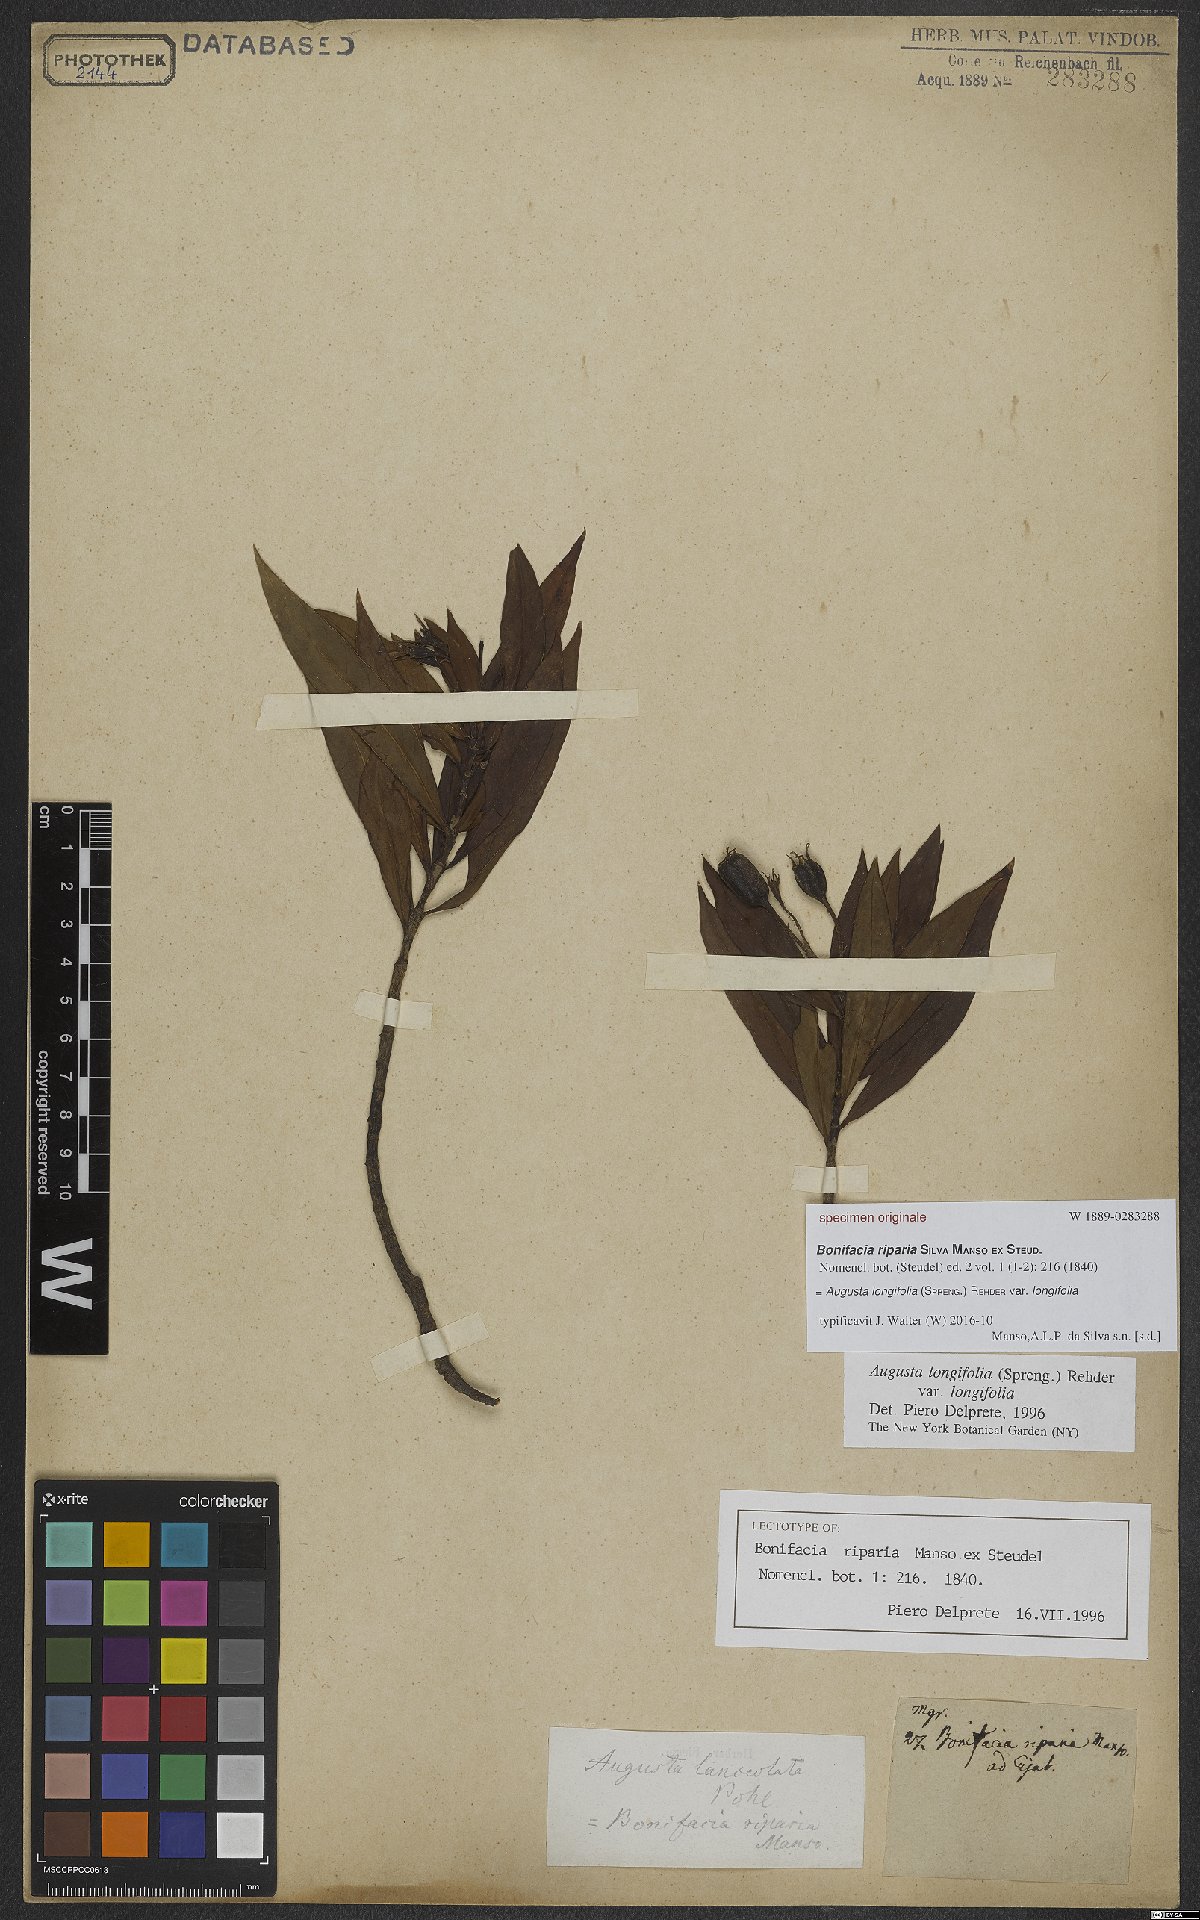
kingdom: Plantae
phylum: Tracheophyta
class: Magnoliopsida
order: Gentianales
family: Rubiaceae
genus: Augusta
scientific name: Augusta longifolia
